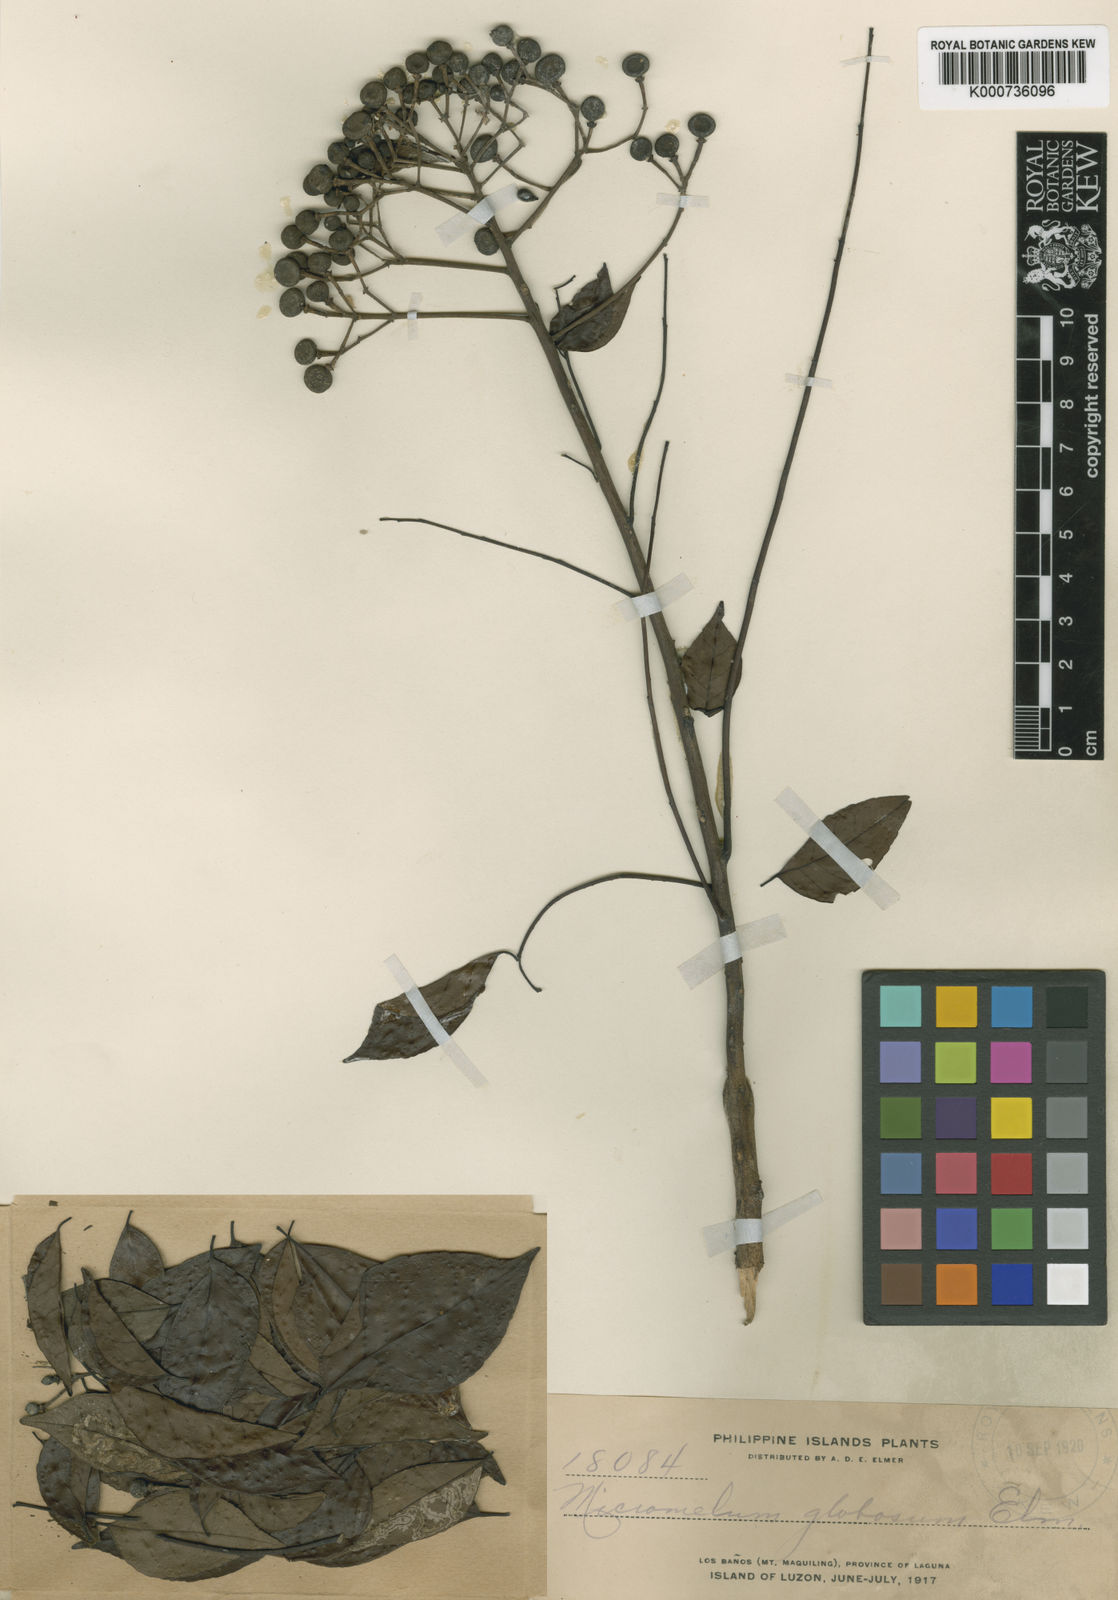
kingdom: Plantae
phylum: Tracheophyta
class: Magnoliopsida
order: Sapindales
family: Rutaceae
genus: Murraya
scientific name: Murraya crenulata
